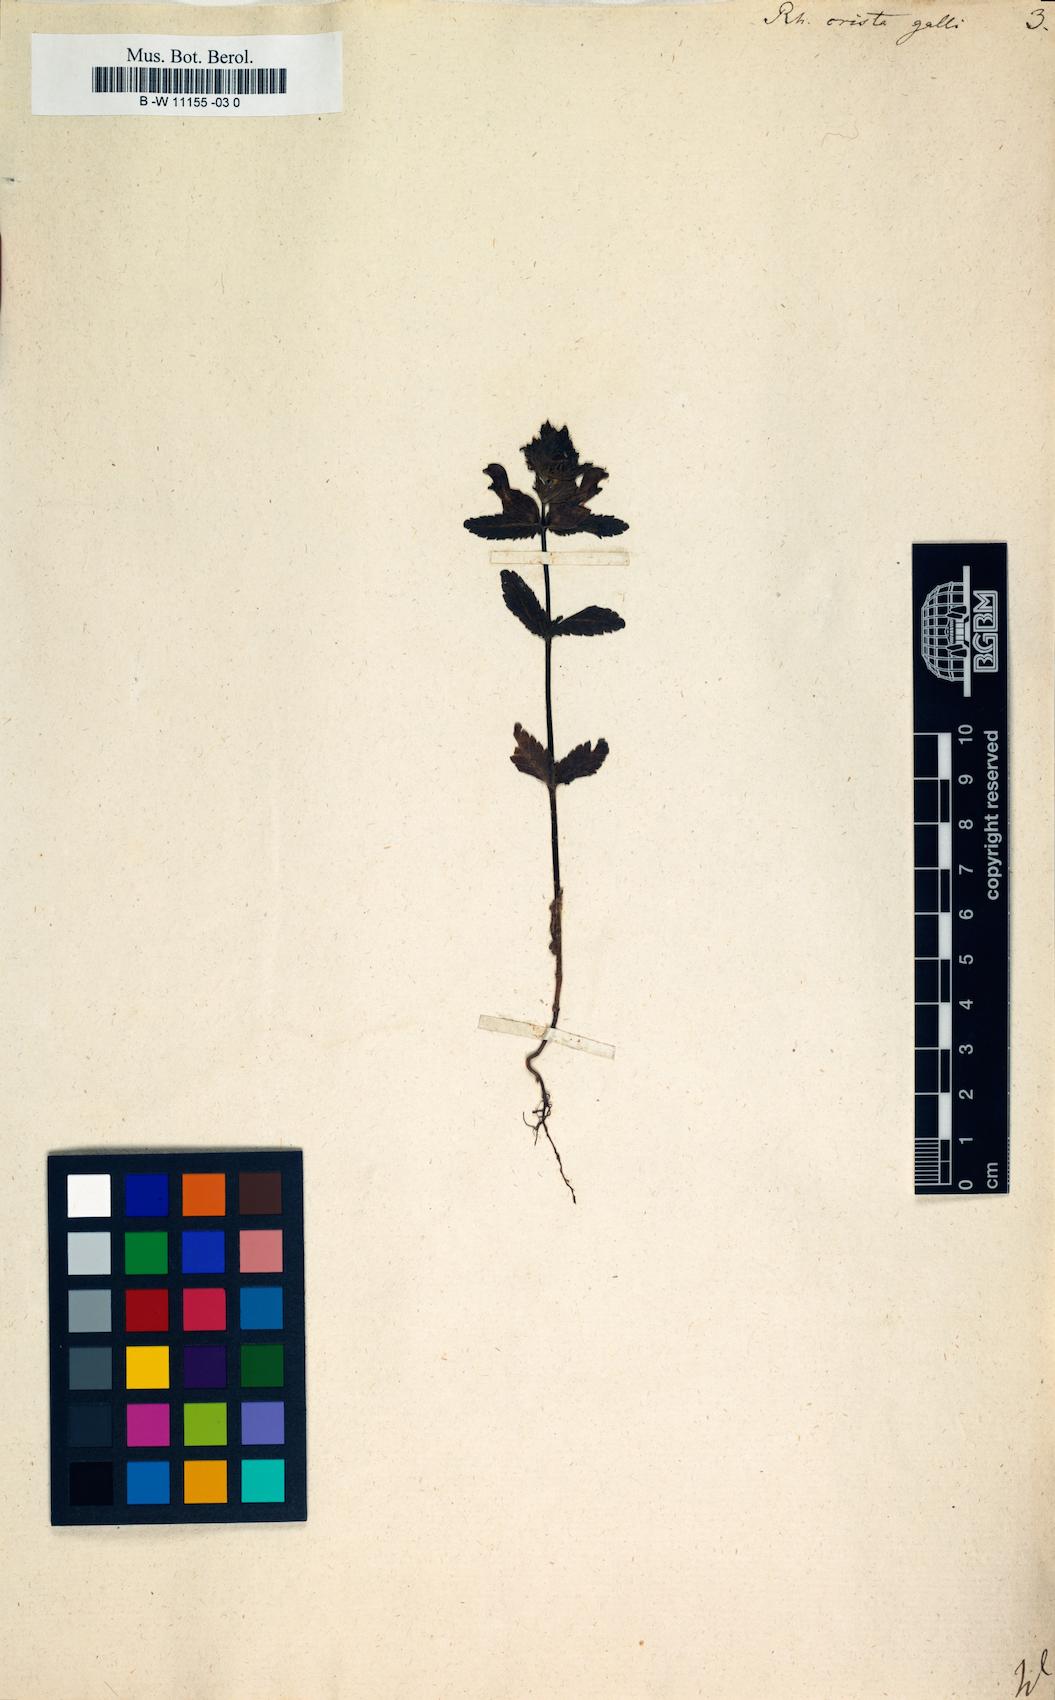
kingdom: Plantae
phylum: Tracheophyta
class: Magnoliopsida
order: Lamiales
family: Orobanchaceae
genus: Rhinanthus
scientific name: Rhinanthus
